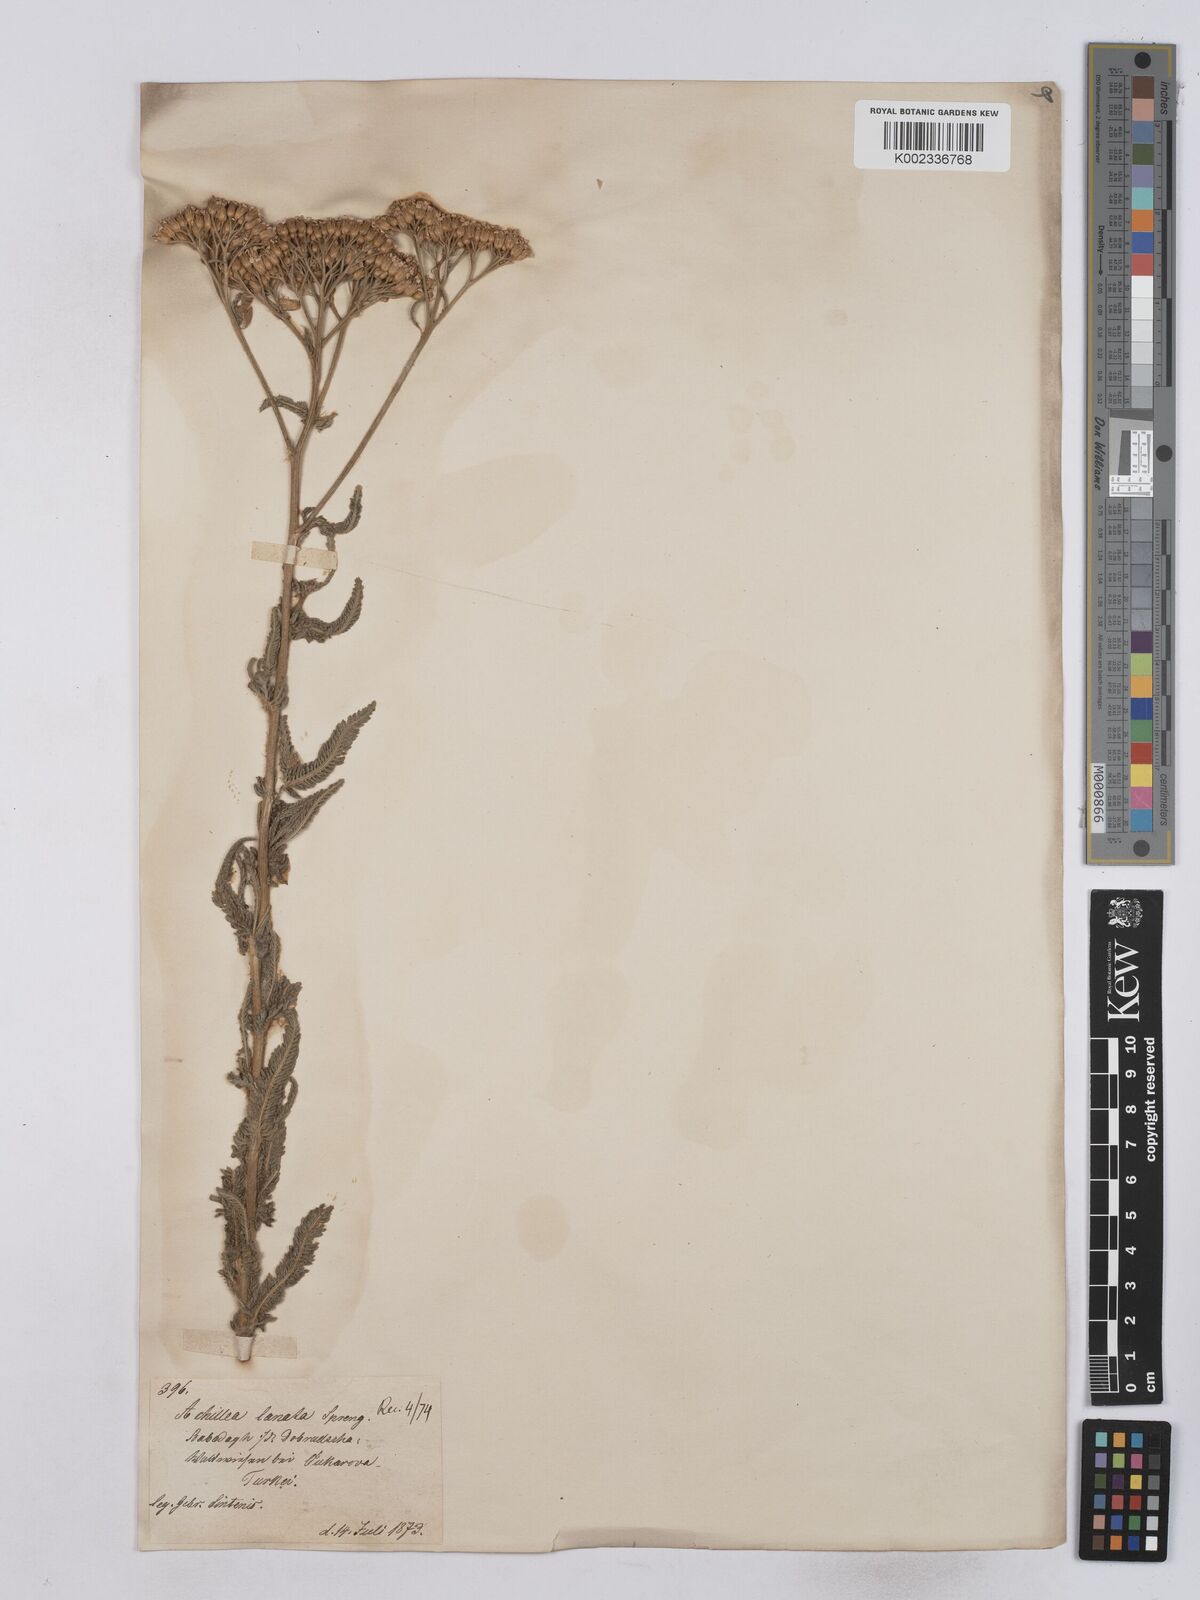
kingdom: Plantae
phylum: Tracheophyta
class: Magnoliopsida
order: Asterales
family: Asteraceae
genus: Achillea
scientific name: Achillea collina
